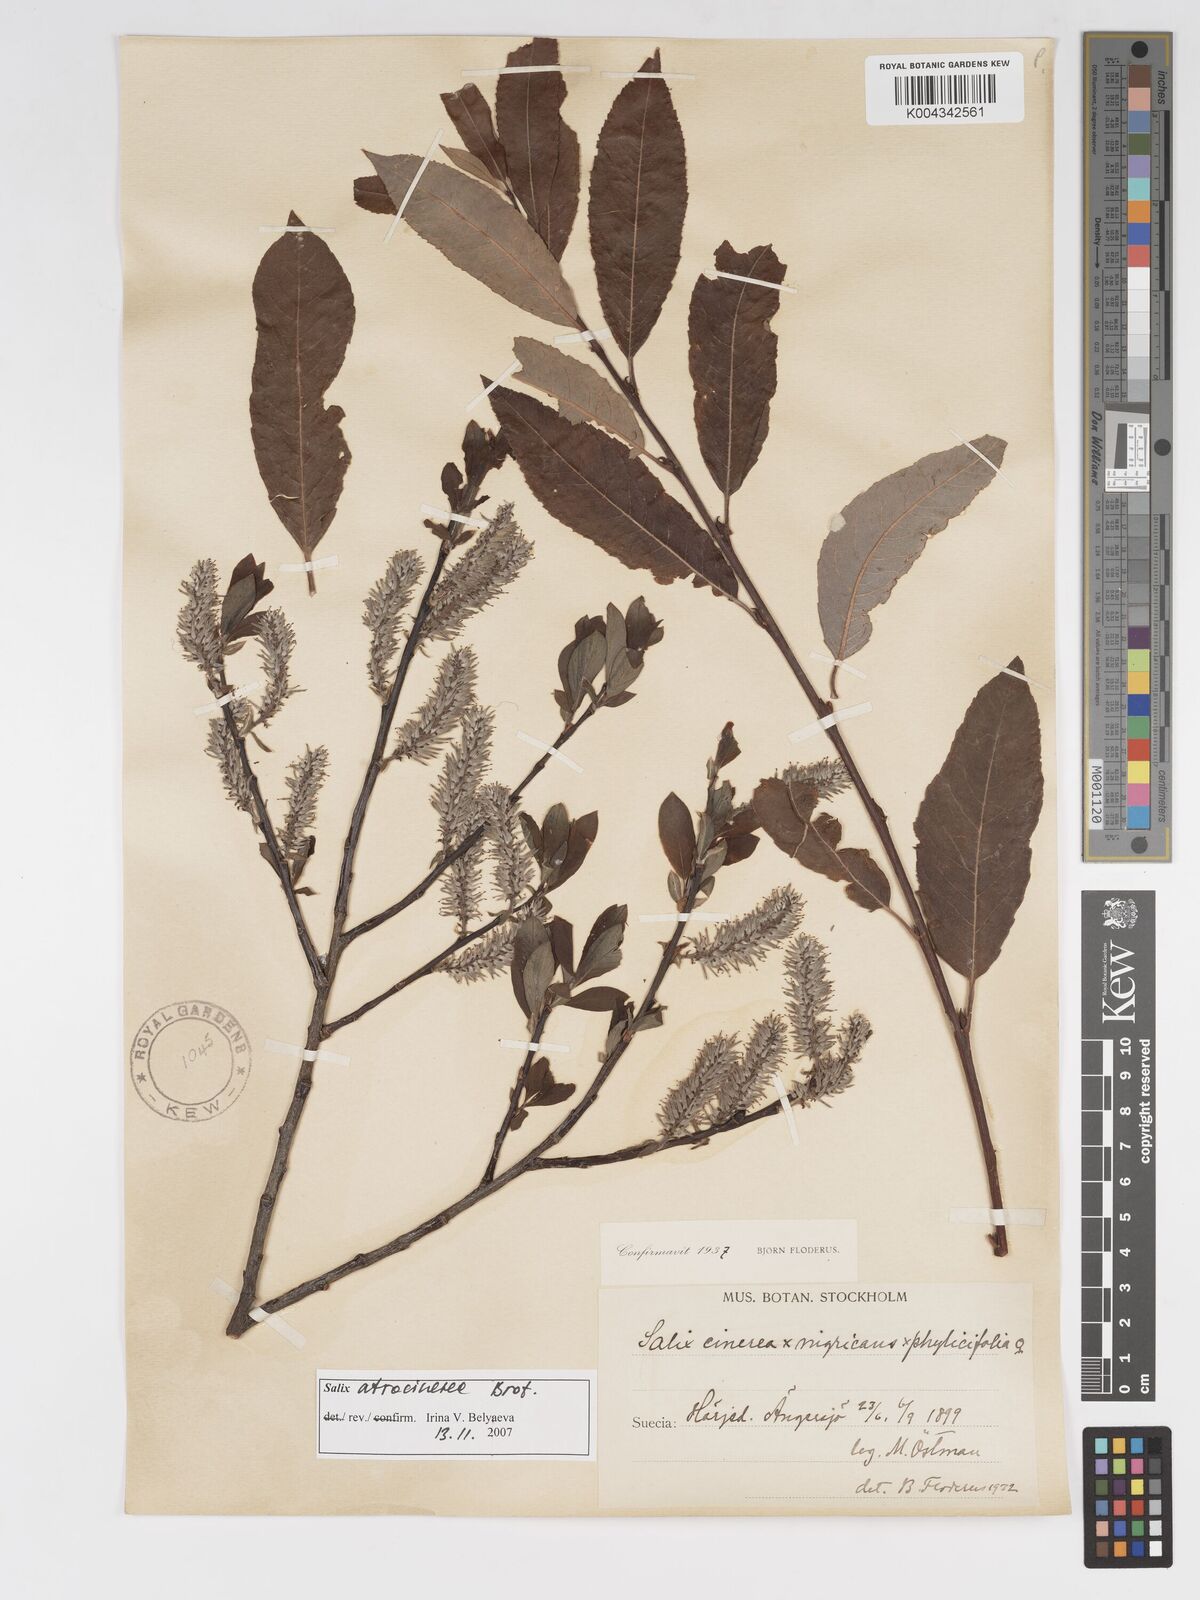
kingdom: Plantae
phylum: Tracheophyta
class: Magnoliopsida
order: Malpighiales
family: Salicaceae
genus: Salix
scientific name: Salix cinerea
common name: Common sallow
